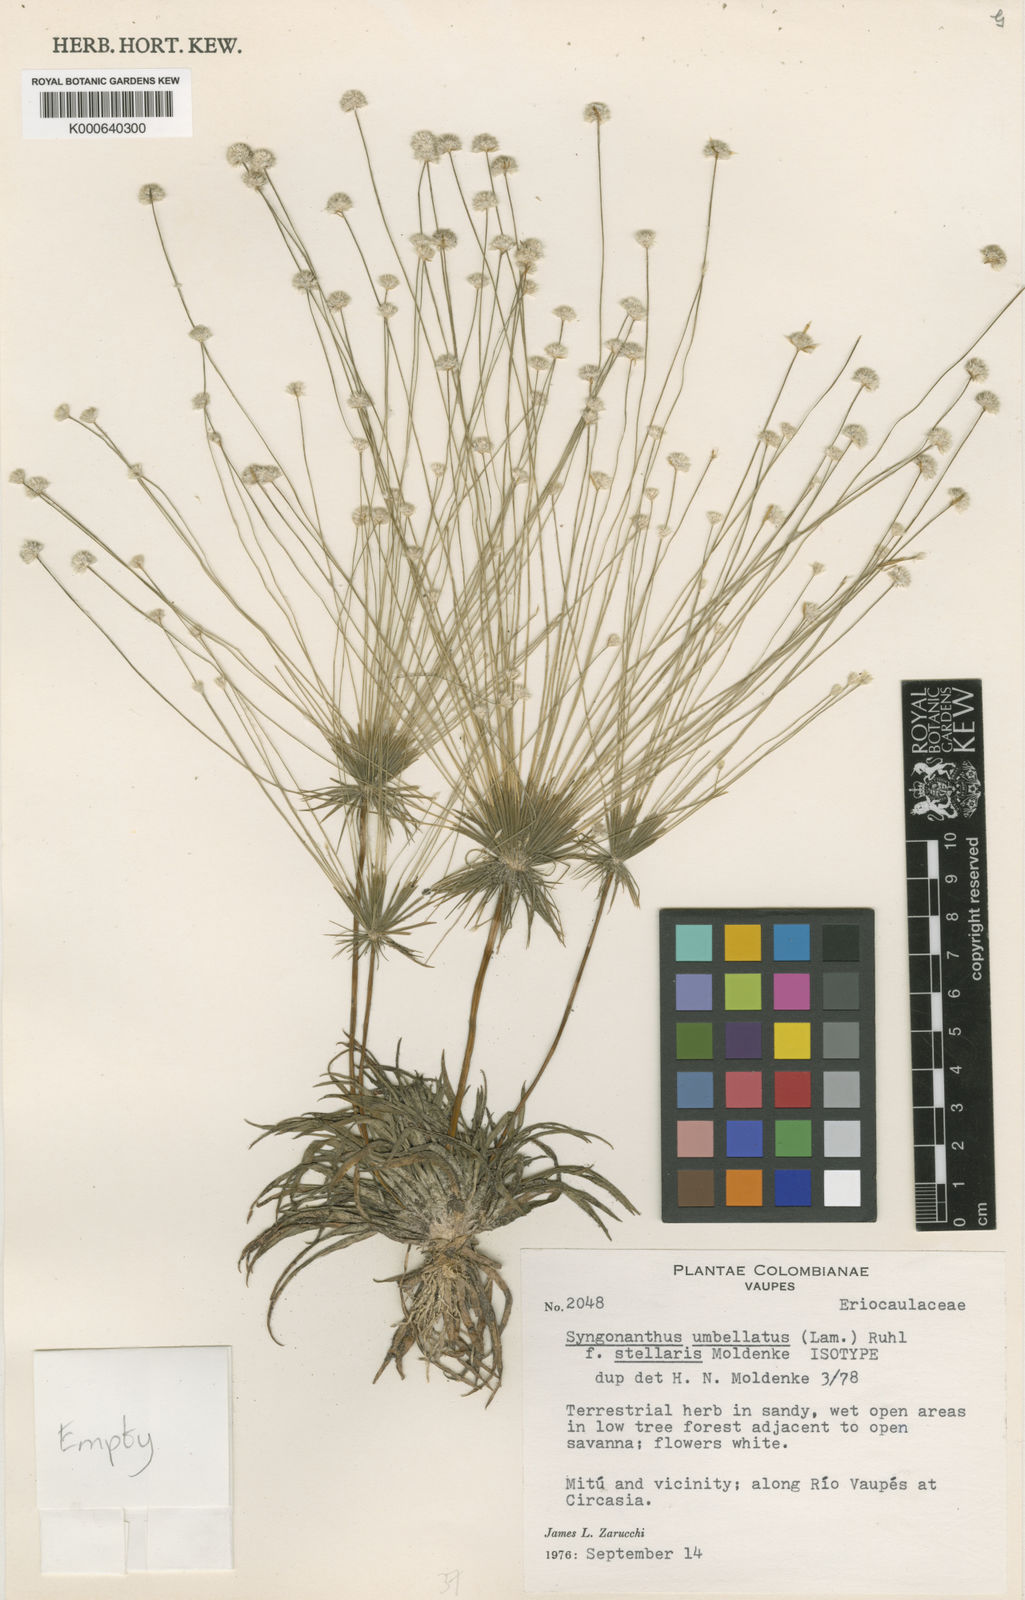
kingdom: Plantae
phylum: Tracheophyta
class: Liliopsida
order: Poales
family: Eriocaulaceae
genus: Syngonanthus
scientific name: Syngonanthus umbellatus
